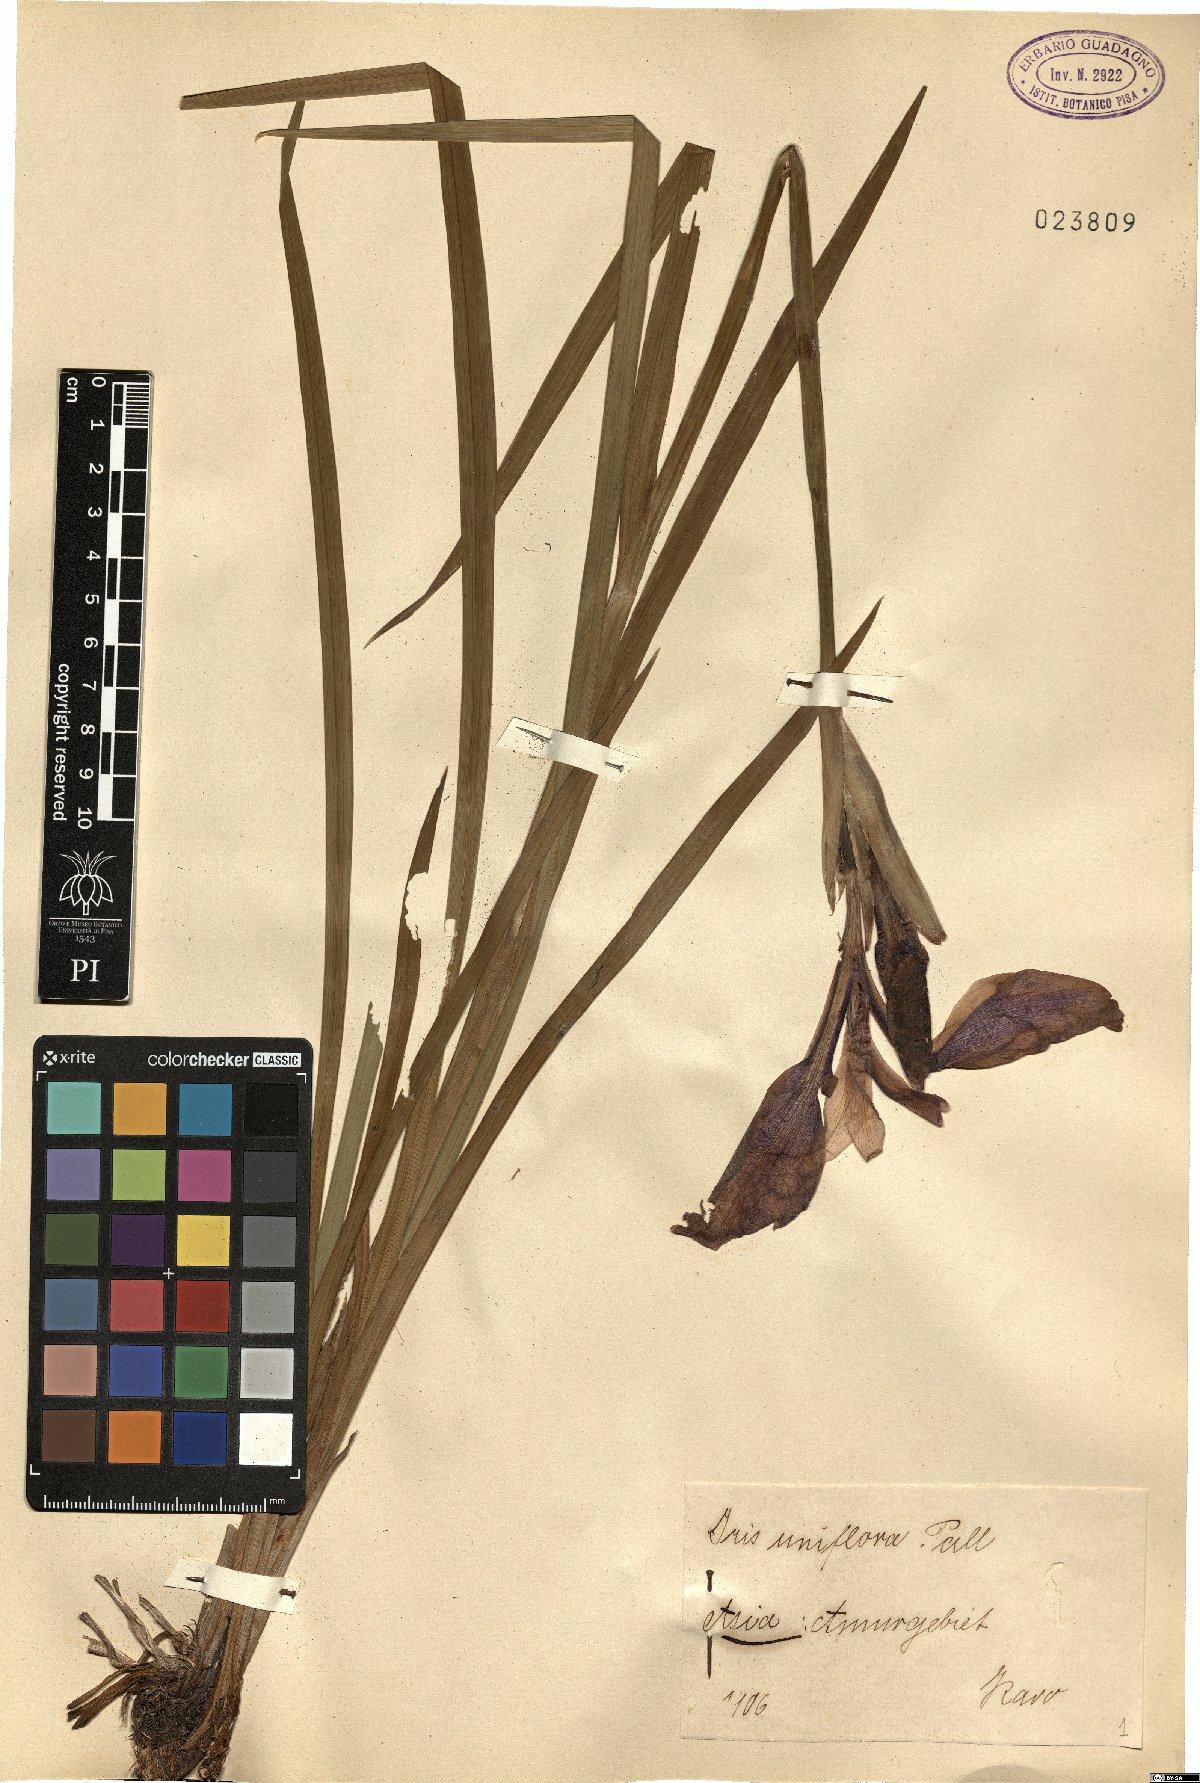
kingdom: Plantae
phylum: Tracheophyta
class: Liliopsida
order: Asparagales
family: Iridaceae
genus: Iris
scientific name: Iris uniflora
